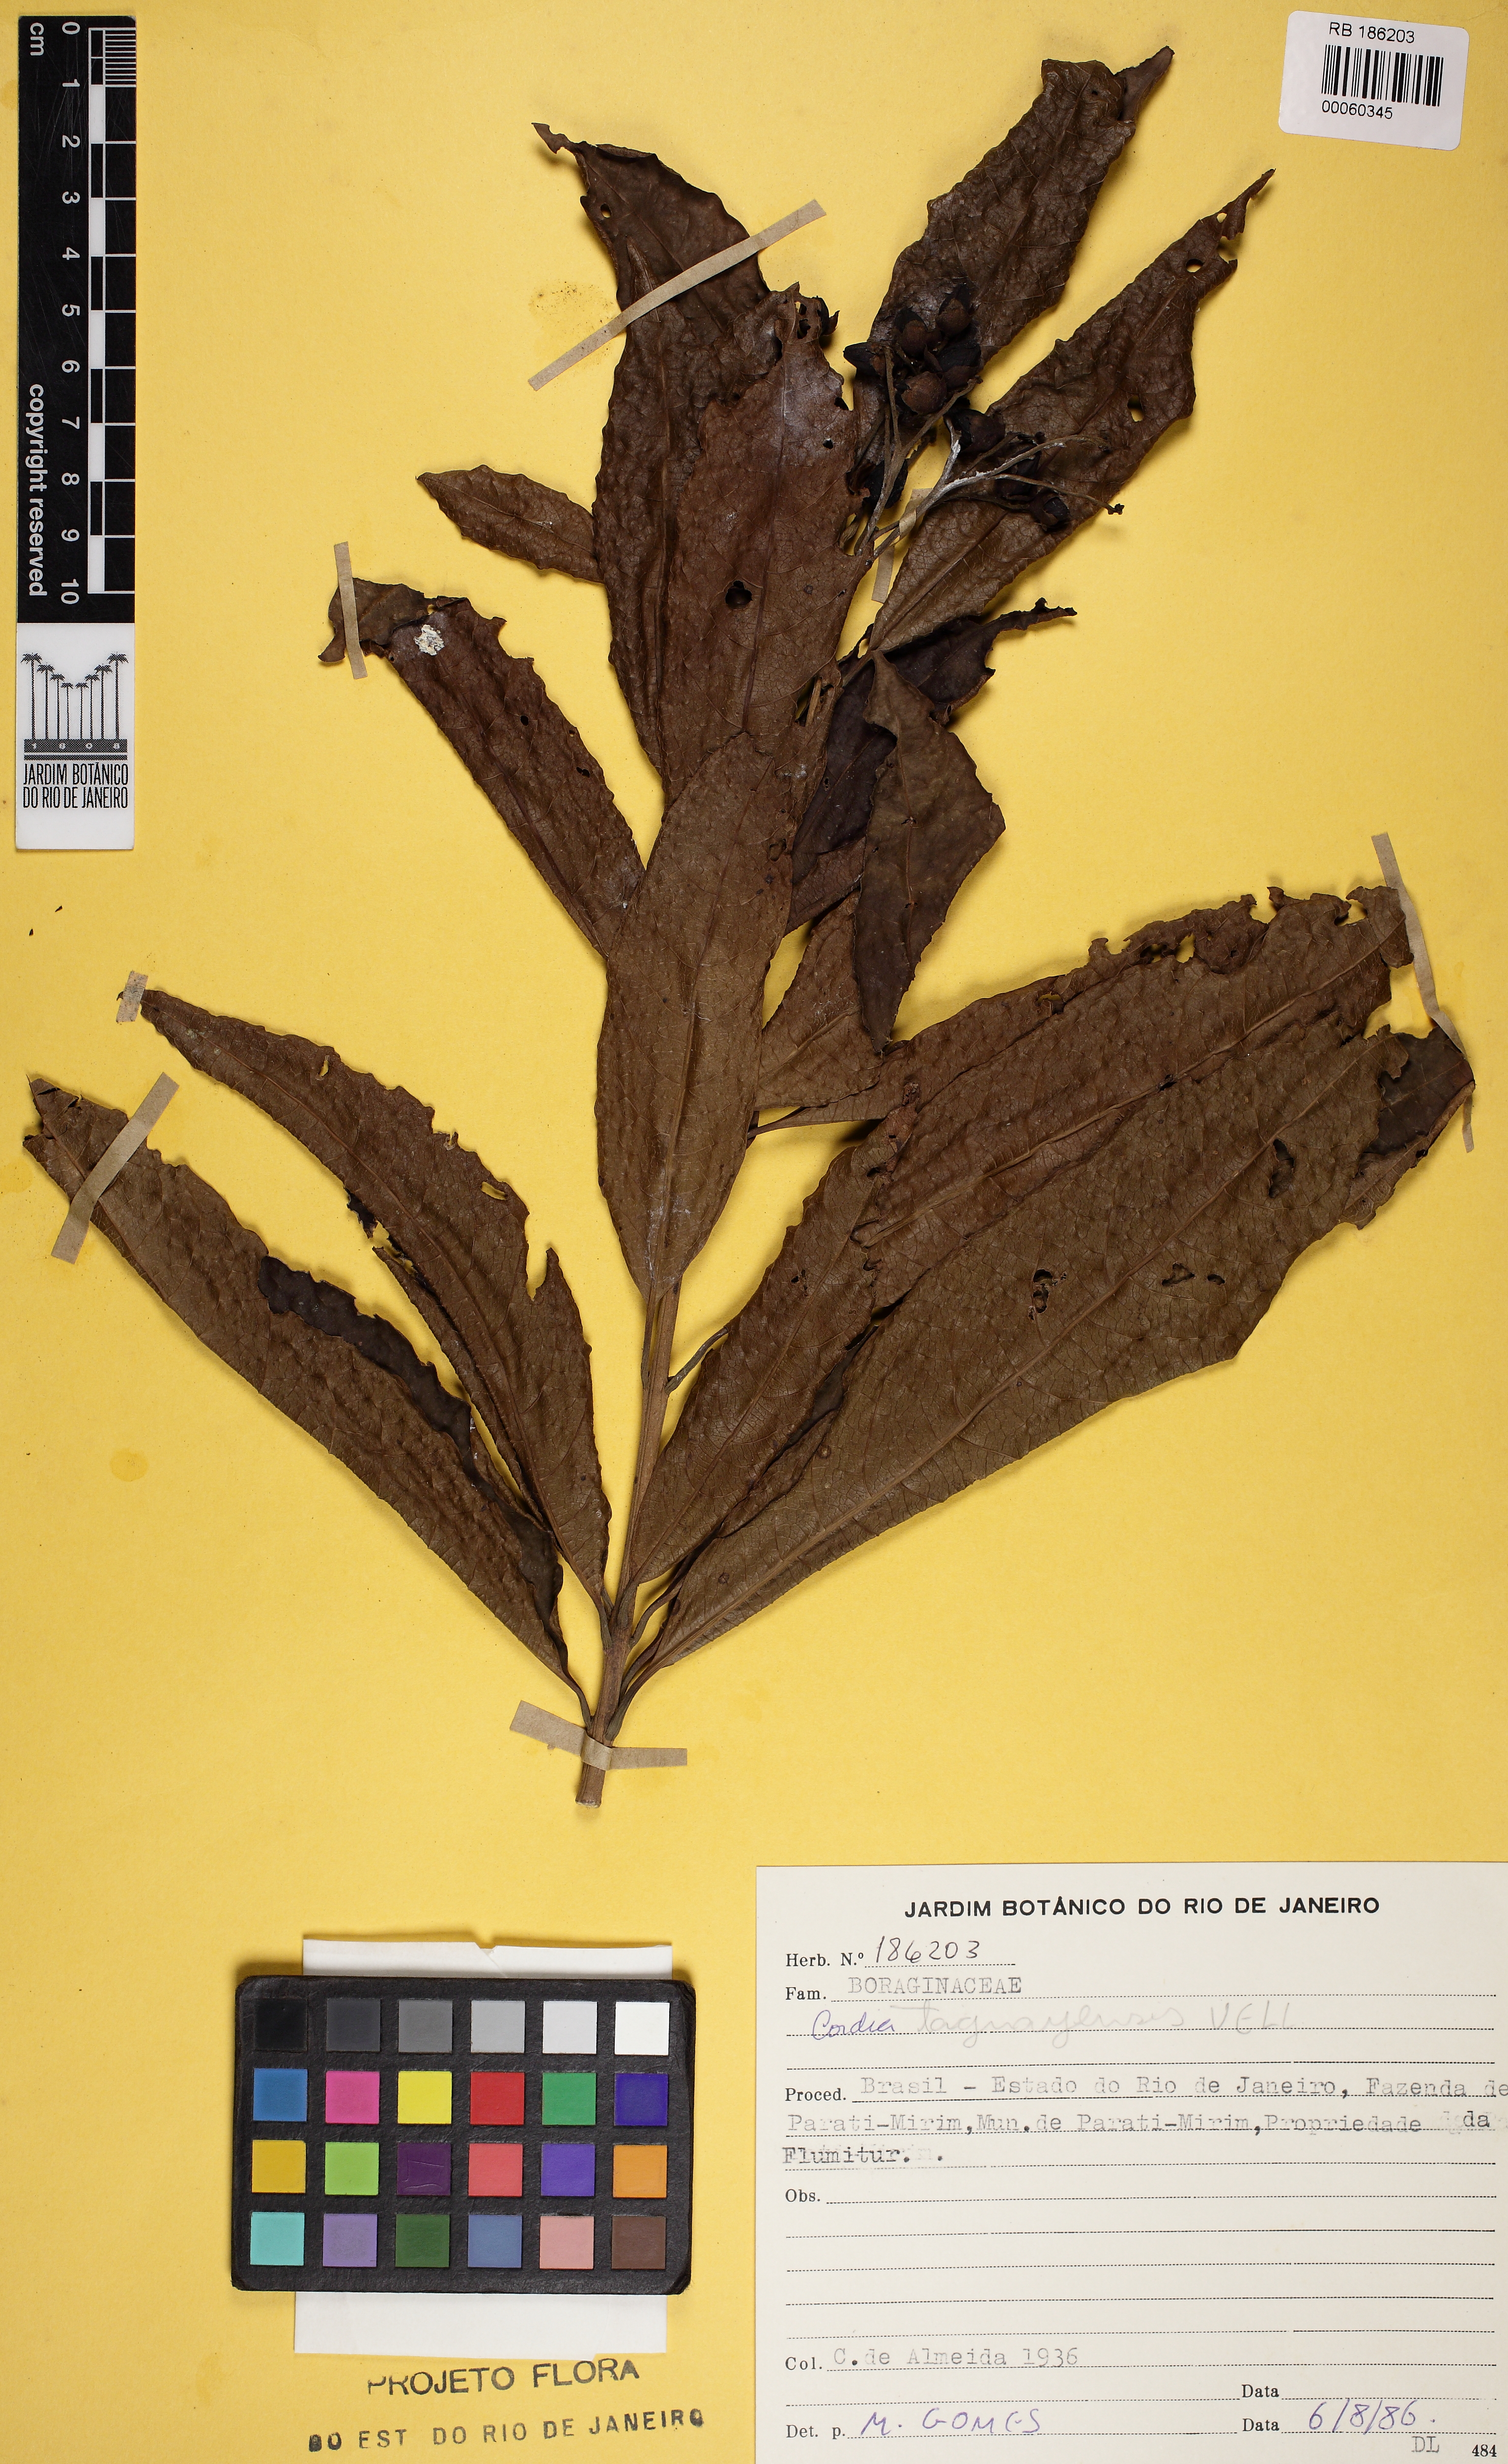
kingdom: Plantae
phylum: Tracheophyta
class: Magnoliopsida
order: Boraginales
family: Cordiaceae
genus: Cordia
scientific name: Cordia taguahuyensis
